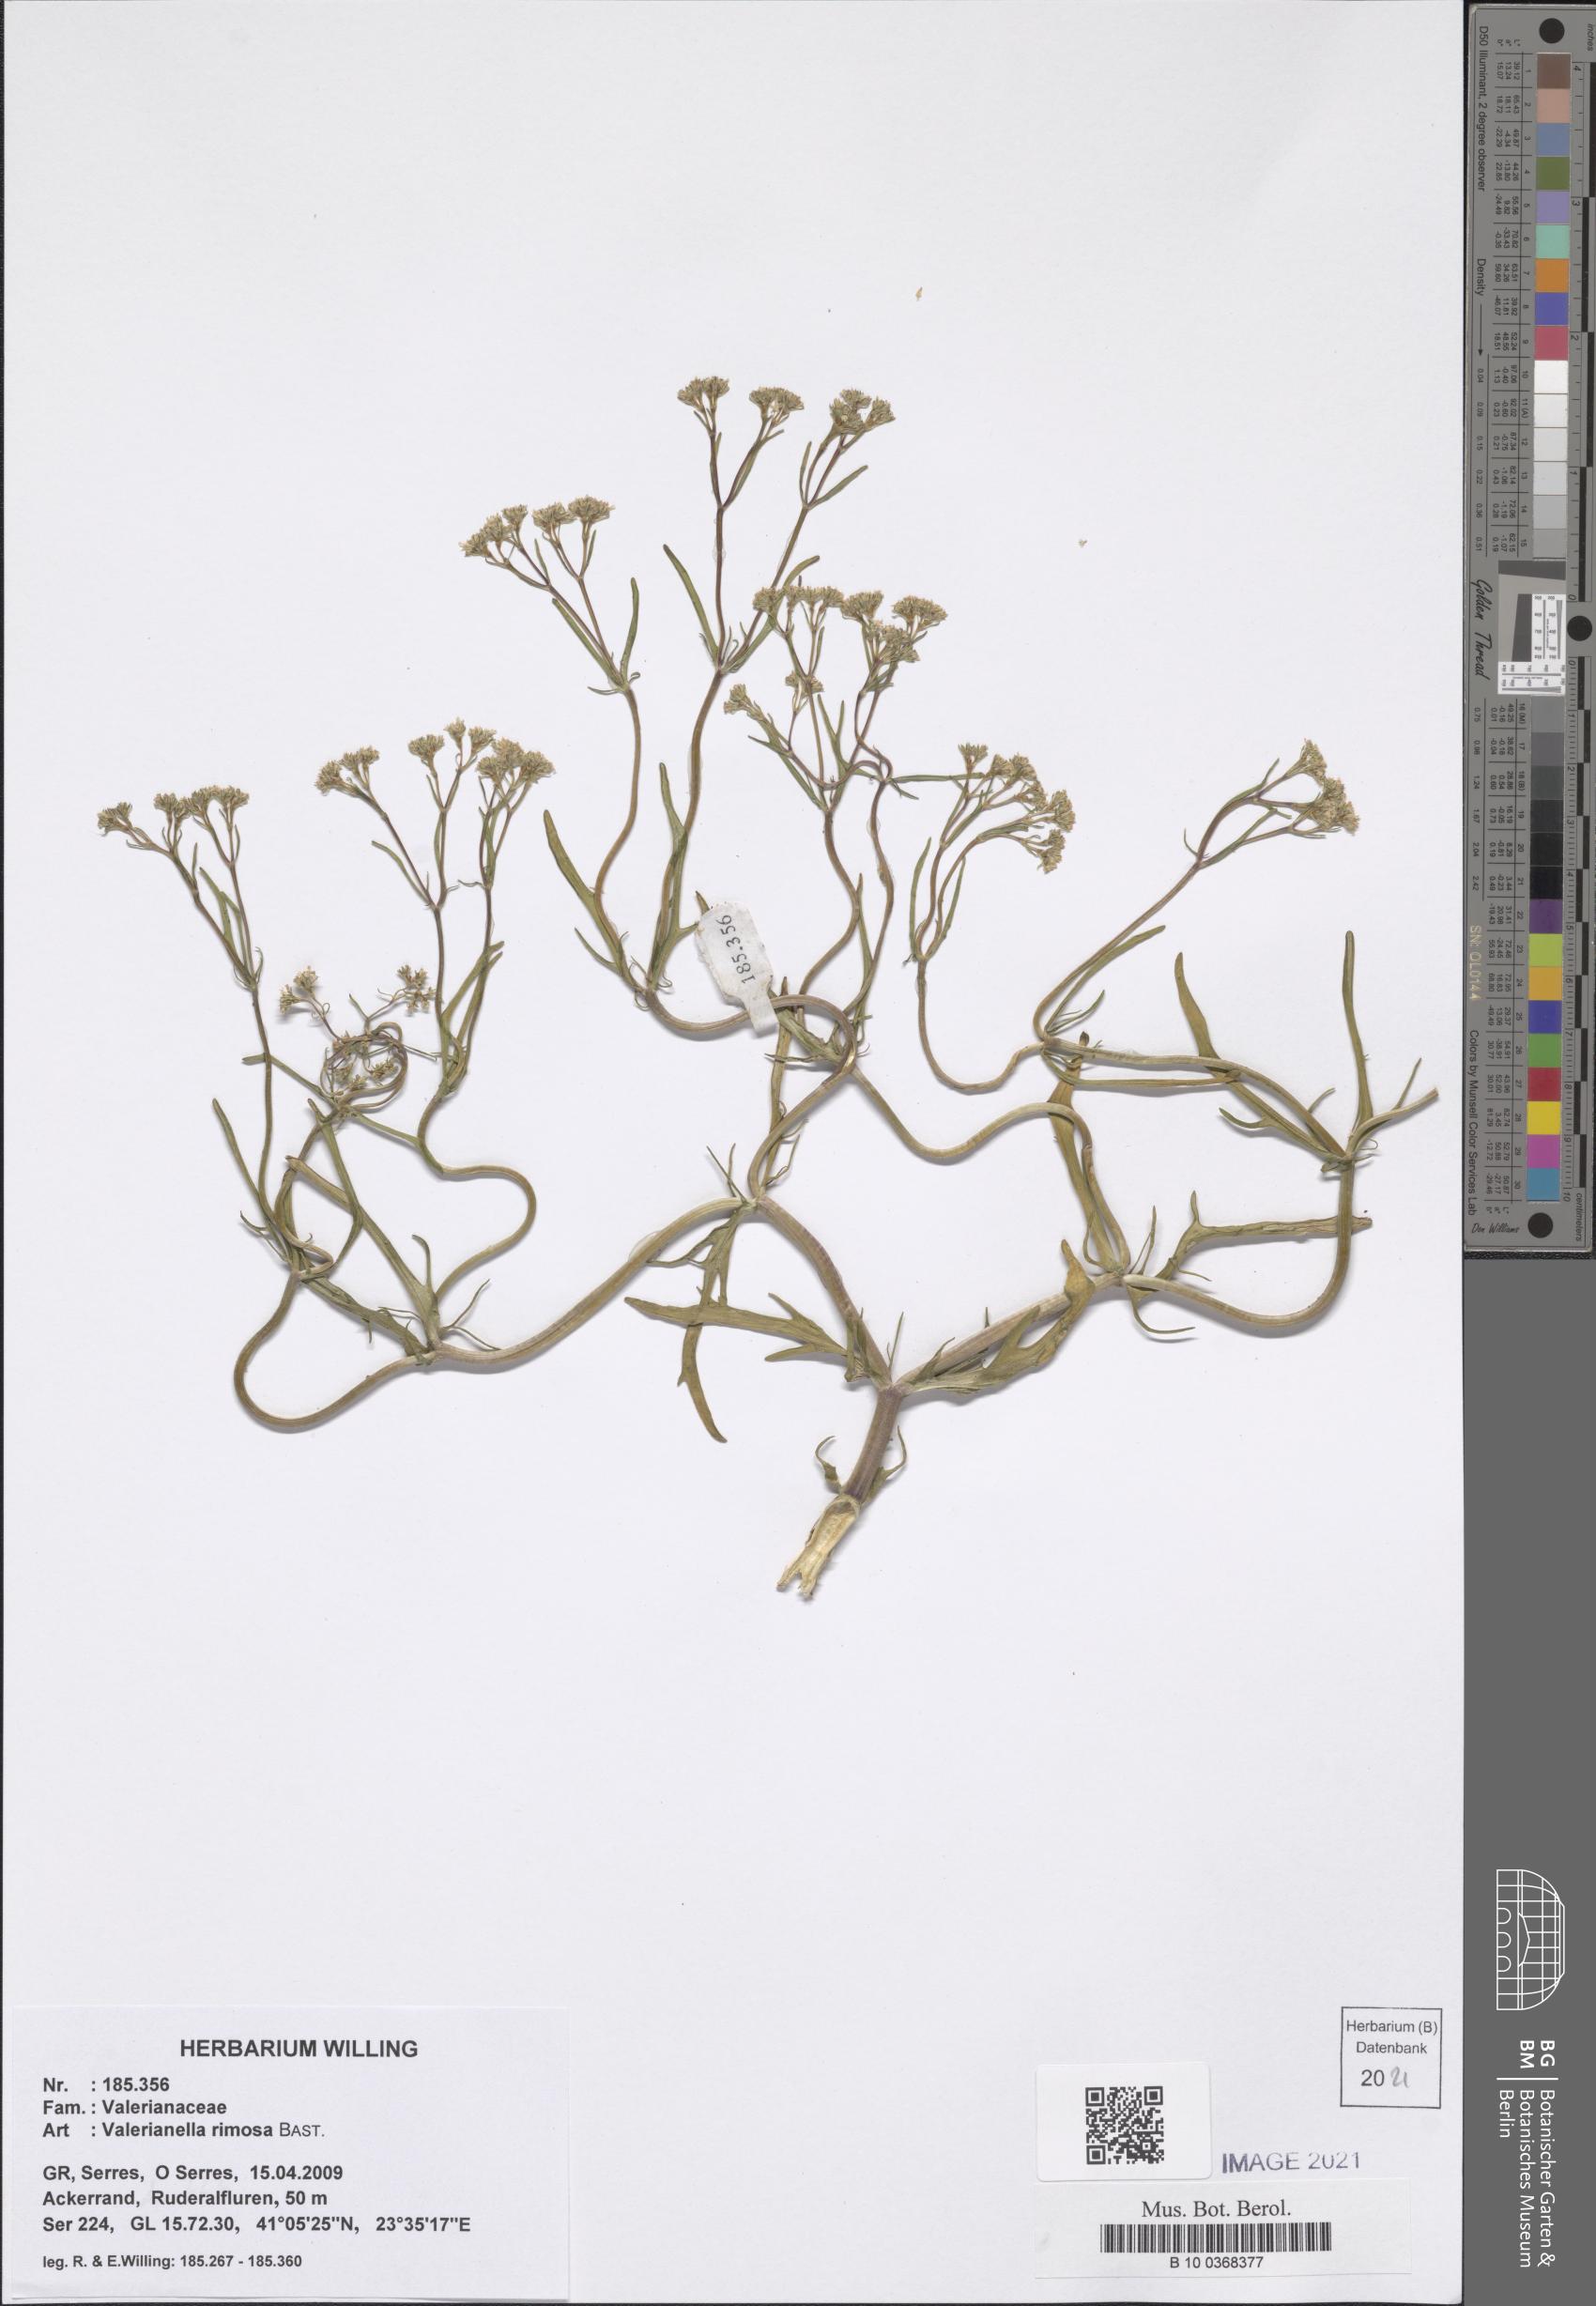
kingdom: Plantae
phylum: Tracheophyta
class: Magnoliopsida
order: Dipsacales
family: Caprifoliaceae
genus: Valerianella
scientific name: Valerianella rimosa
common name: Broad-fruited cornsalad
